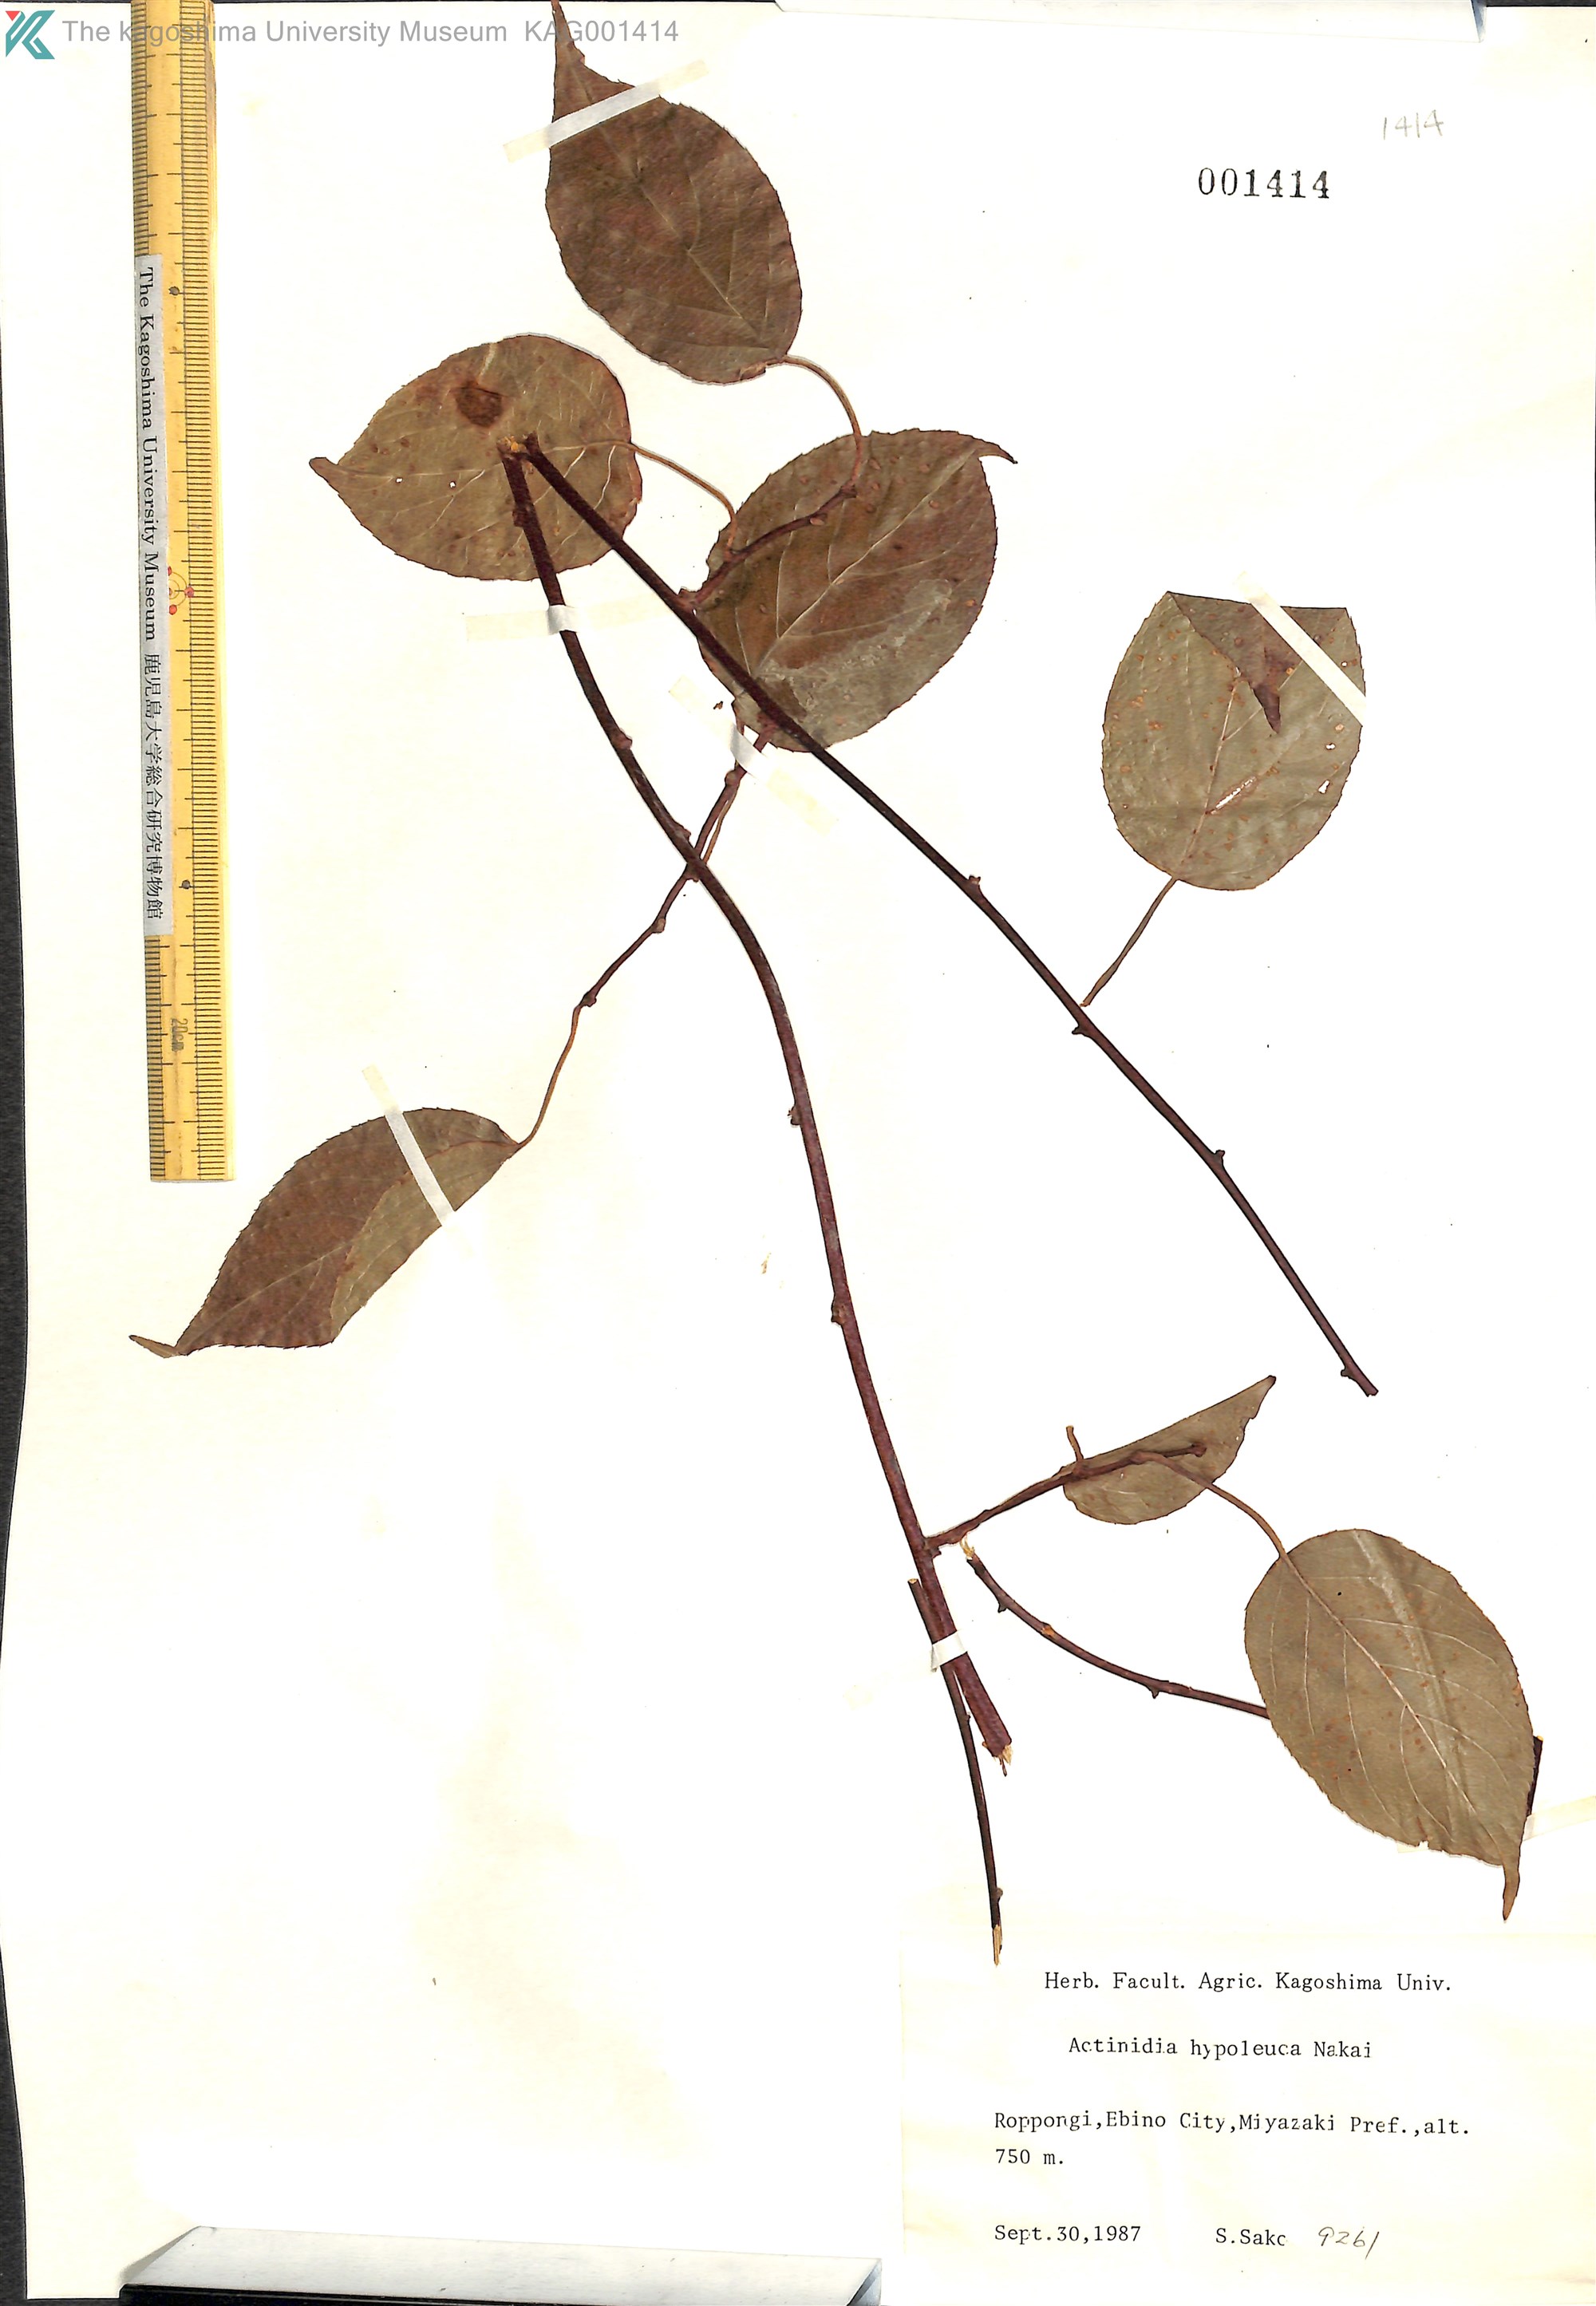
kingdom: Plantae
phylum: Tracheophyta
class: Magnoliopsida
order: Ericales
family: Actinidiaceae
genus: Actinidia
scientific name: Actinidia arguta
